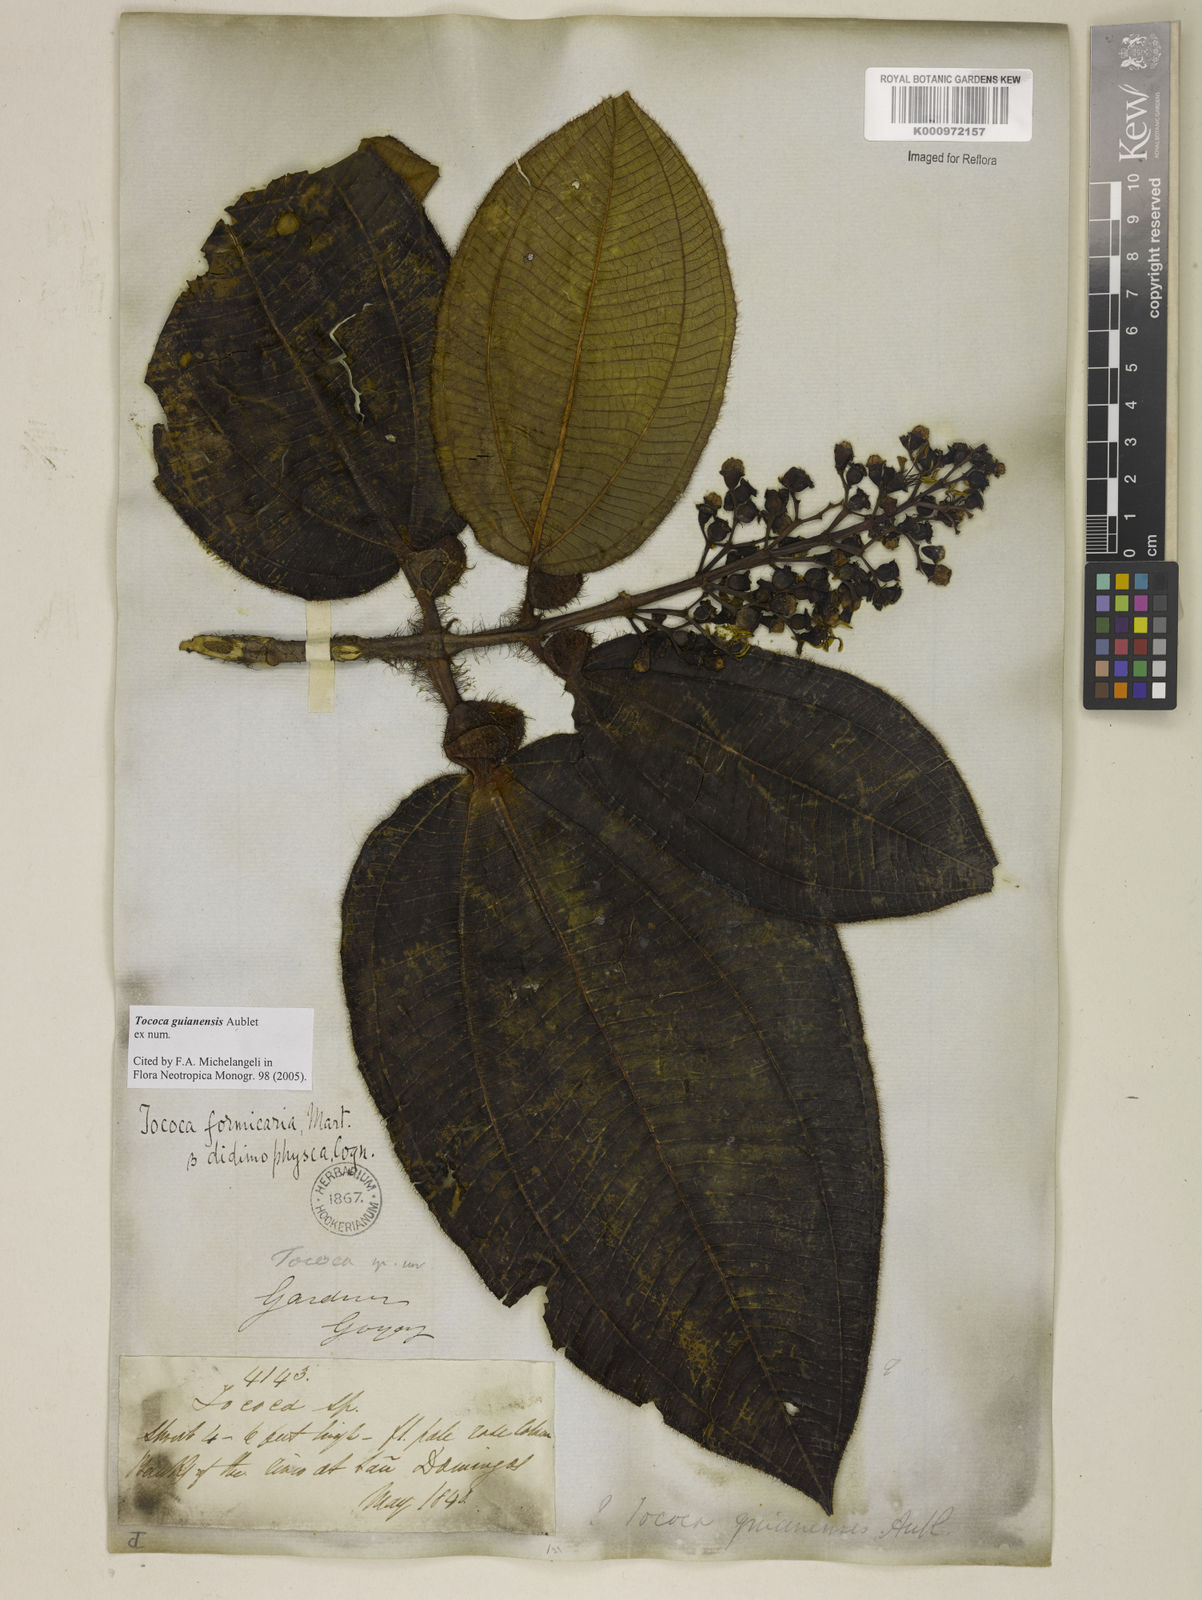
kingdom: Plantae
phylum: Tracheophyta
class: Magnoliopsida
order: Myrtales
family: Melastomataceae
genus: Miconia
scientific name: Miconia tococa
